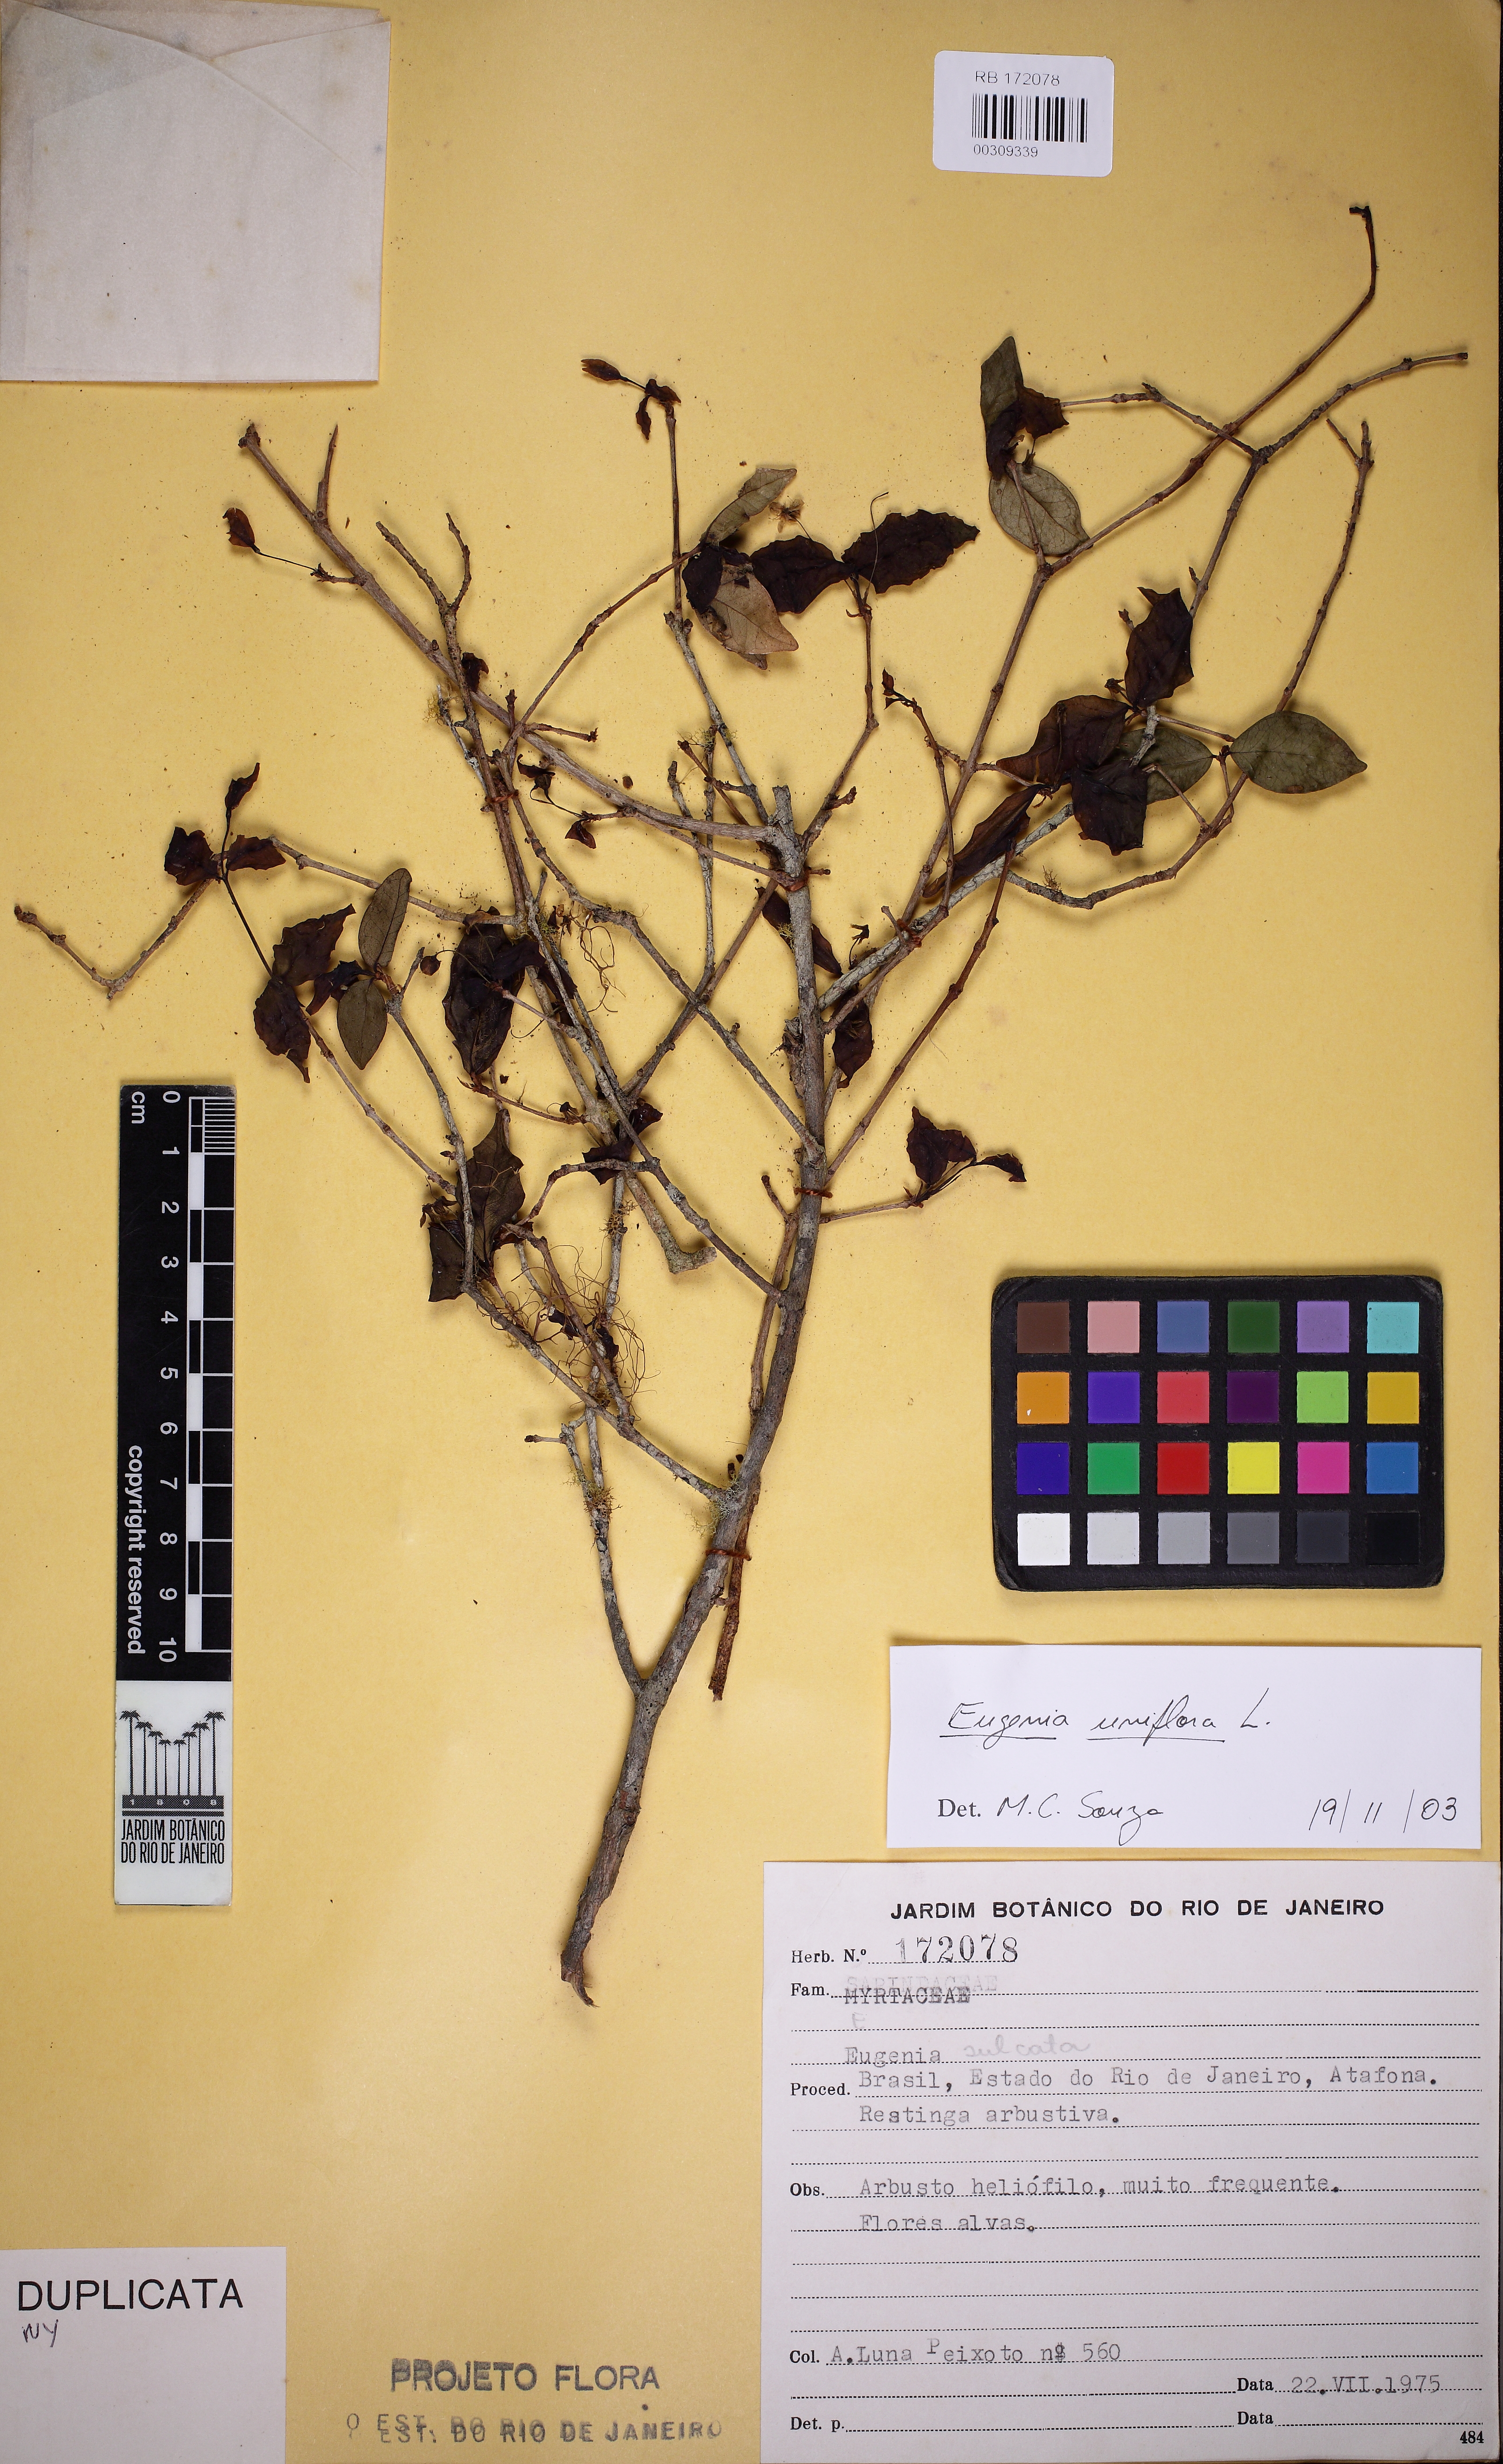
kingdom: Plantae
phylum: Tracheophyta
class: Magnoliopsida
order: Myrtales
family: Myrtaceae
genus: Eugenia
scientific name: Eugenia uniflora
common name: Surinam cherry
